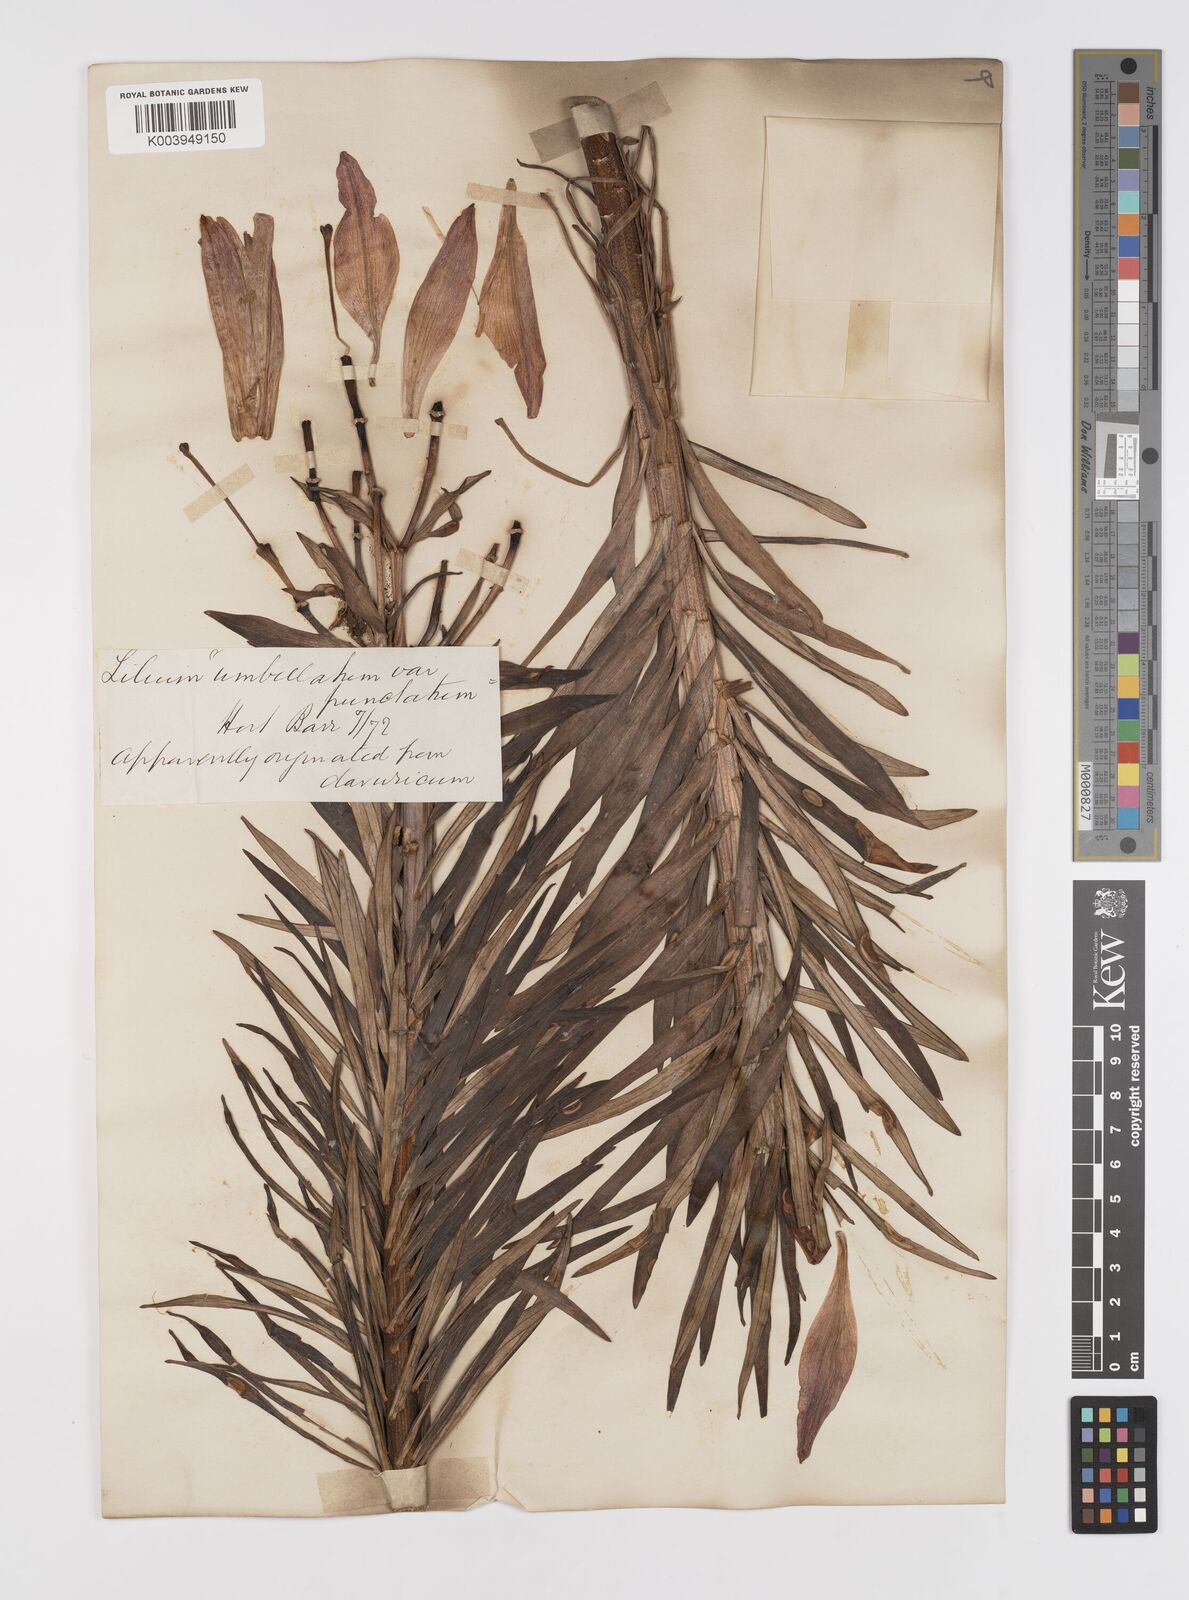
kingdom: Plantae
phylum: Tracheophyta
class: Liliopsida
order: Liliales
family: Liliaceae
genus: Lilium
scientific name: Lilium pensylvanicum
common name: Candlestick lily
